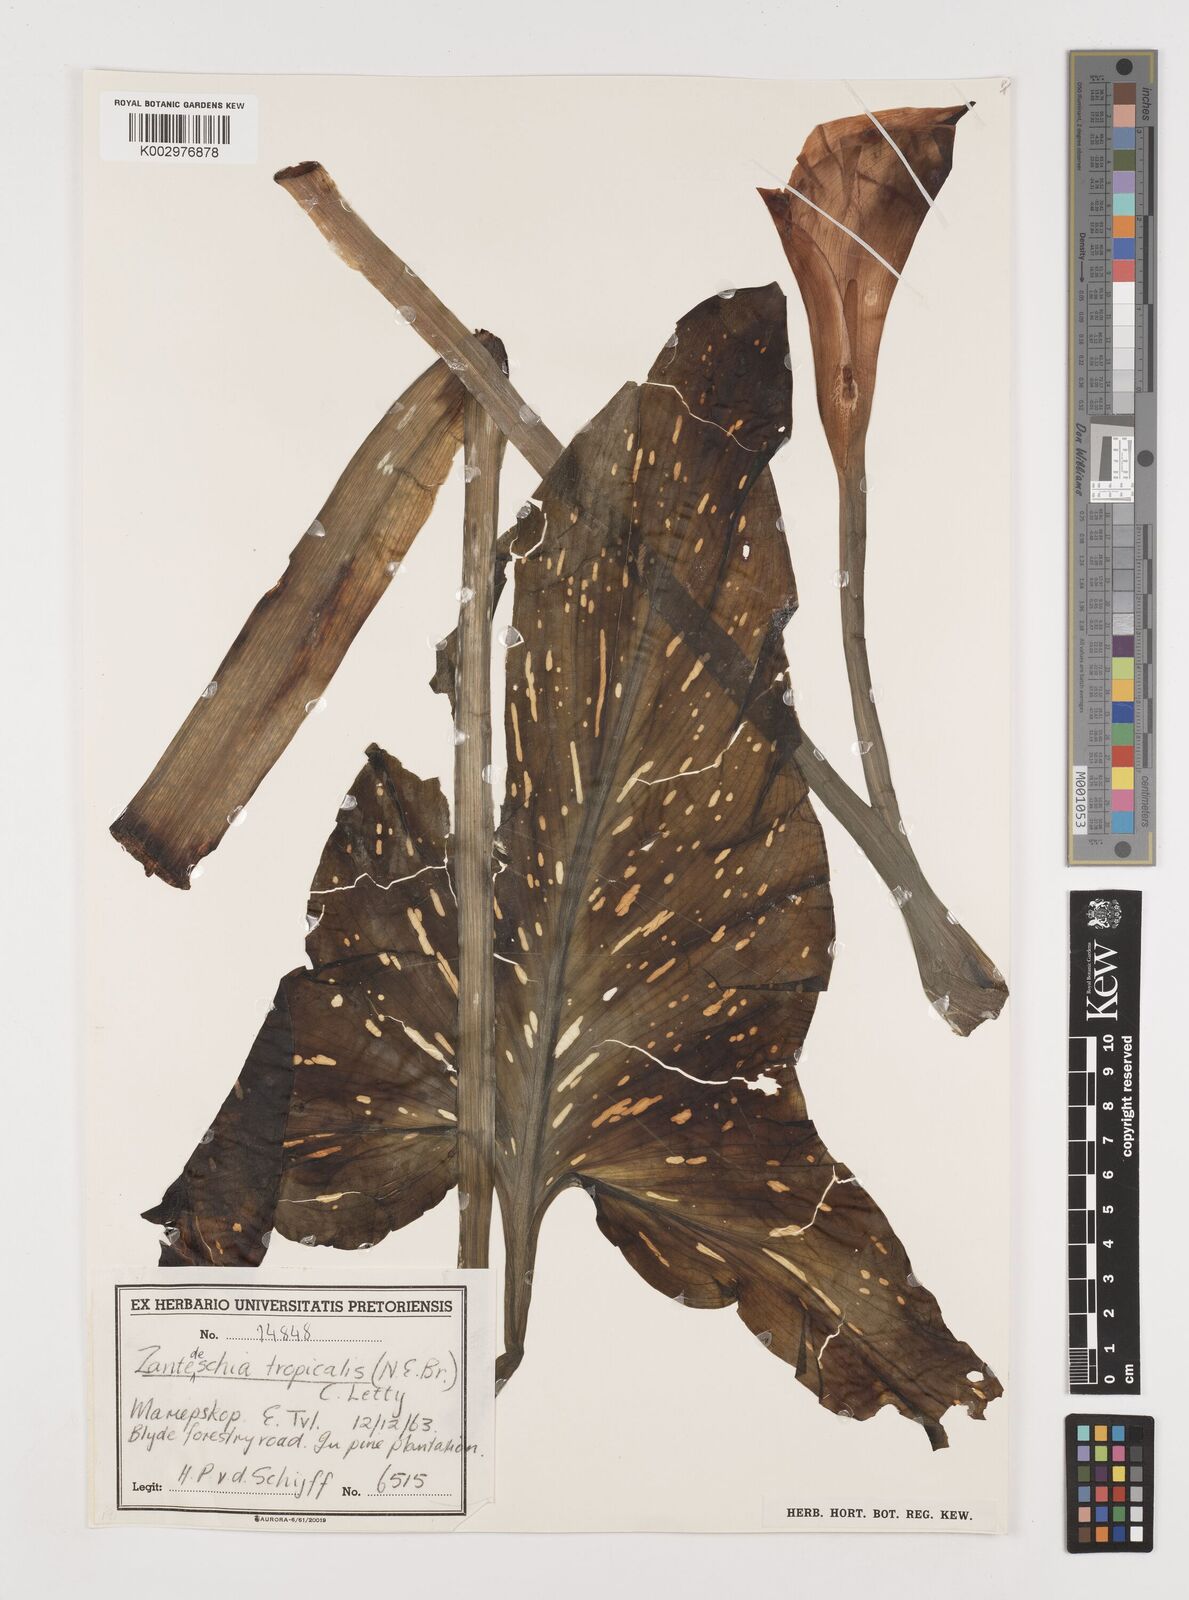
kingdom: Plantae
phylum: Tracheophyta
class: Liliopsida
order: Alismatales
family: Araceae
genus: Zantedeschia
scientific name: Zantedeschia albomaculata
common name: Spotted calla lily
